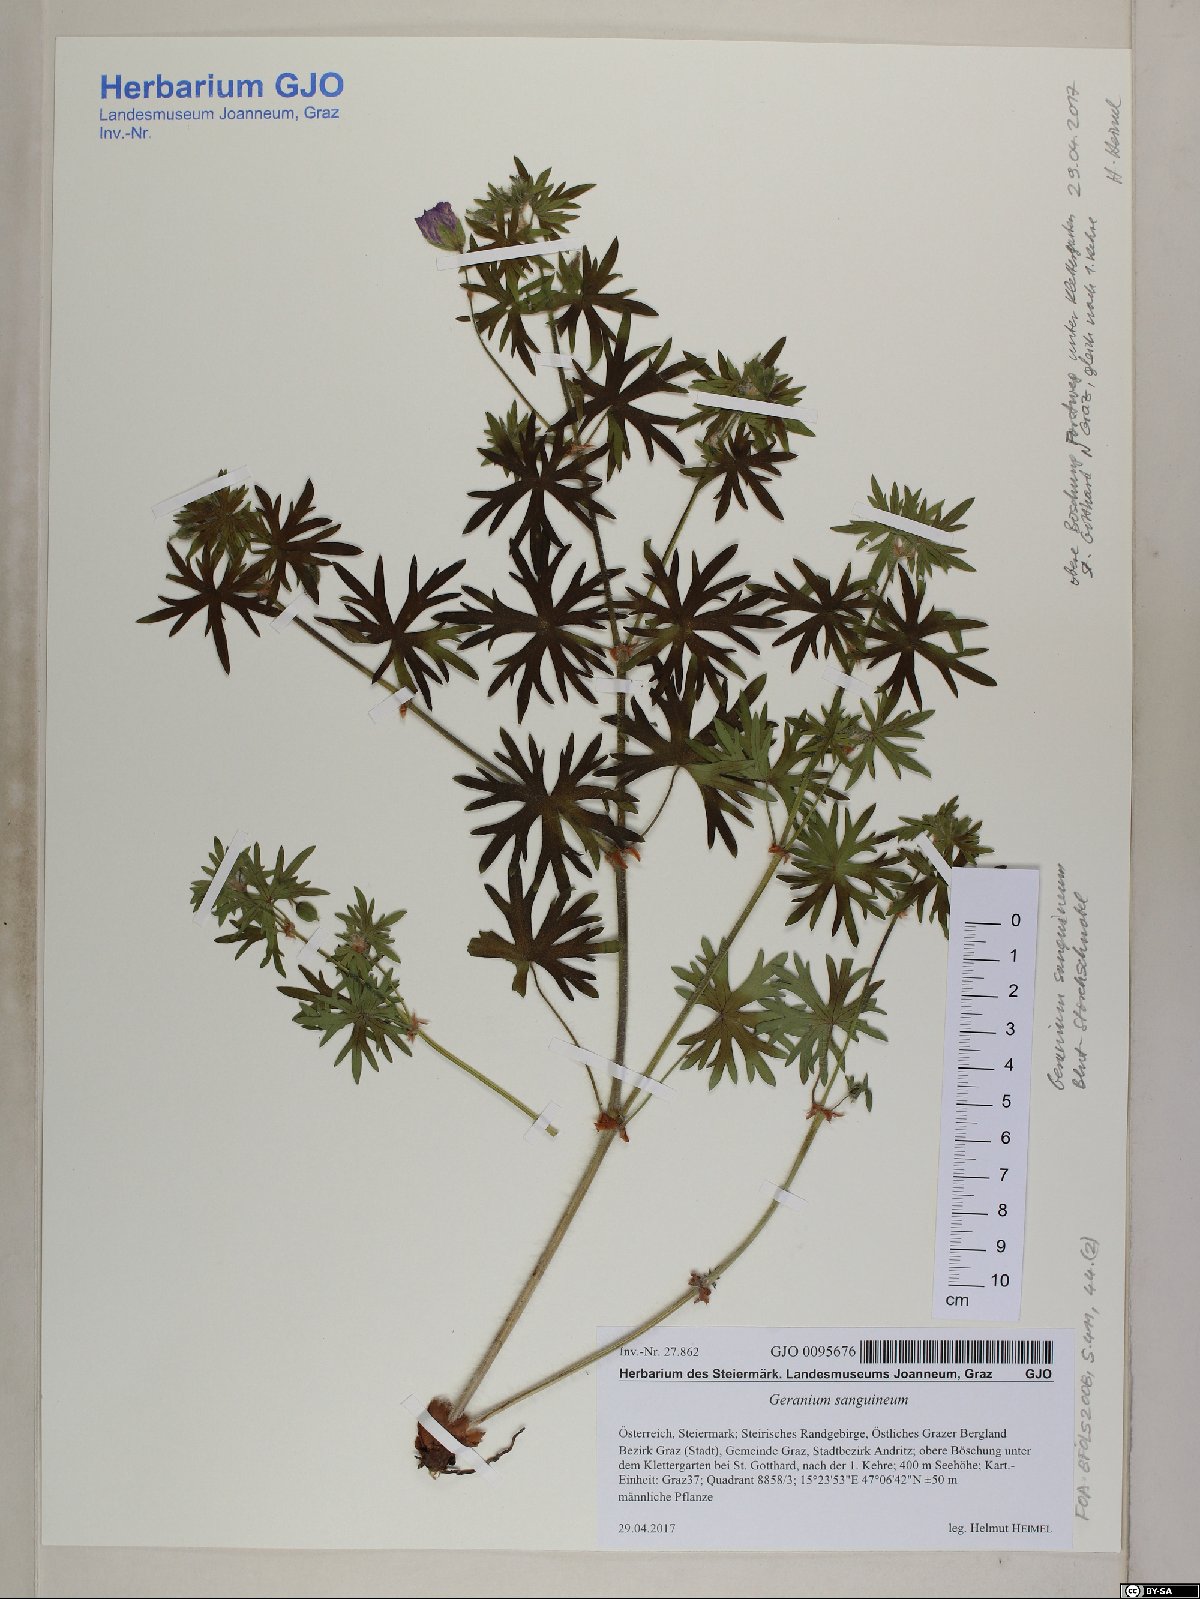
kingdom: Plantae
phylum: Tracheophyta
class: Magnoliopsida
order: Geraniales
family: Geraniaceae
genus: Geranium
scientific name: Geranium sanguineum
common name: Bloody crane's-bill
